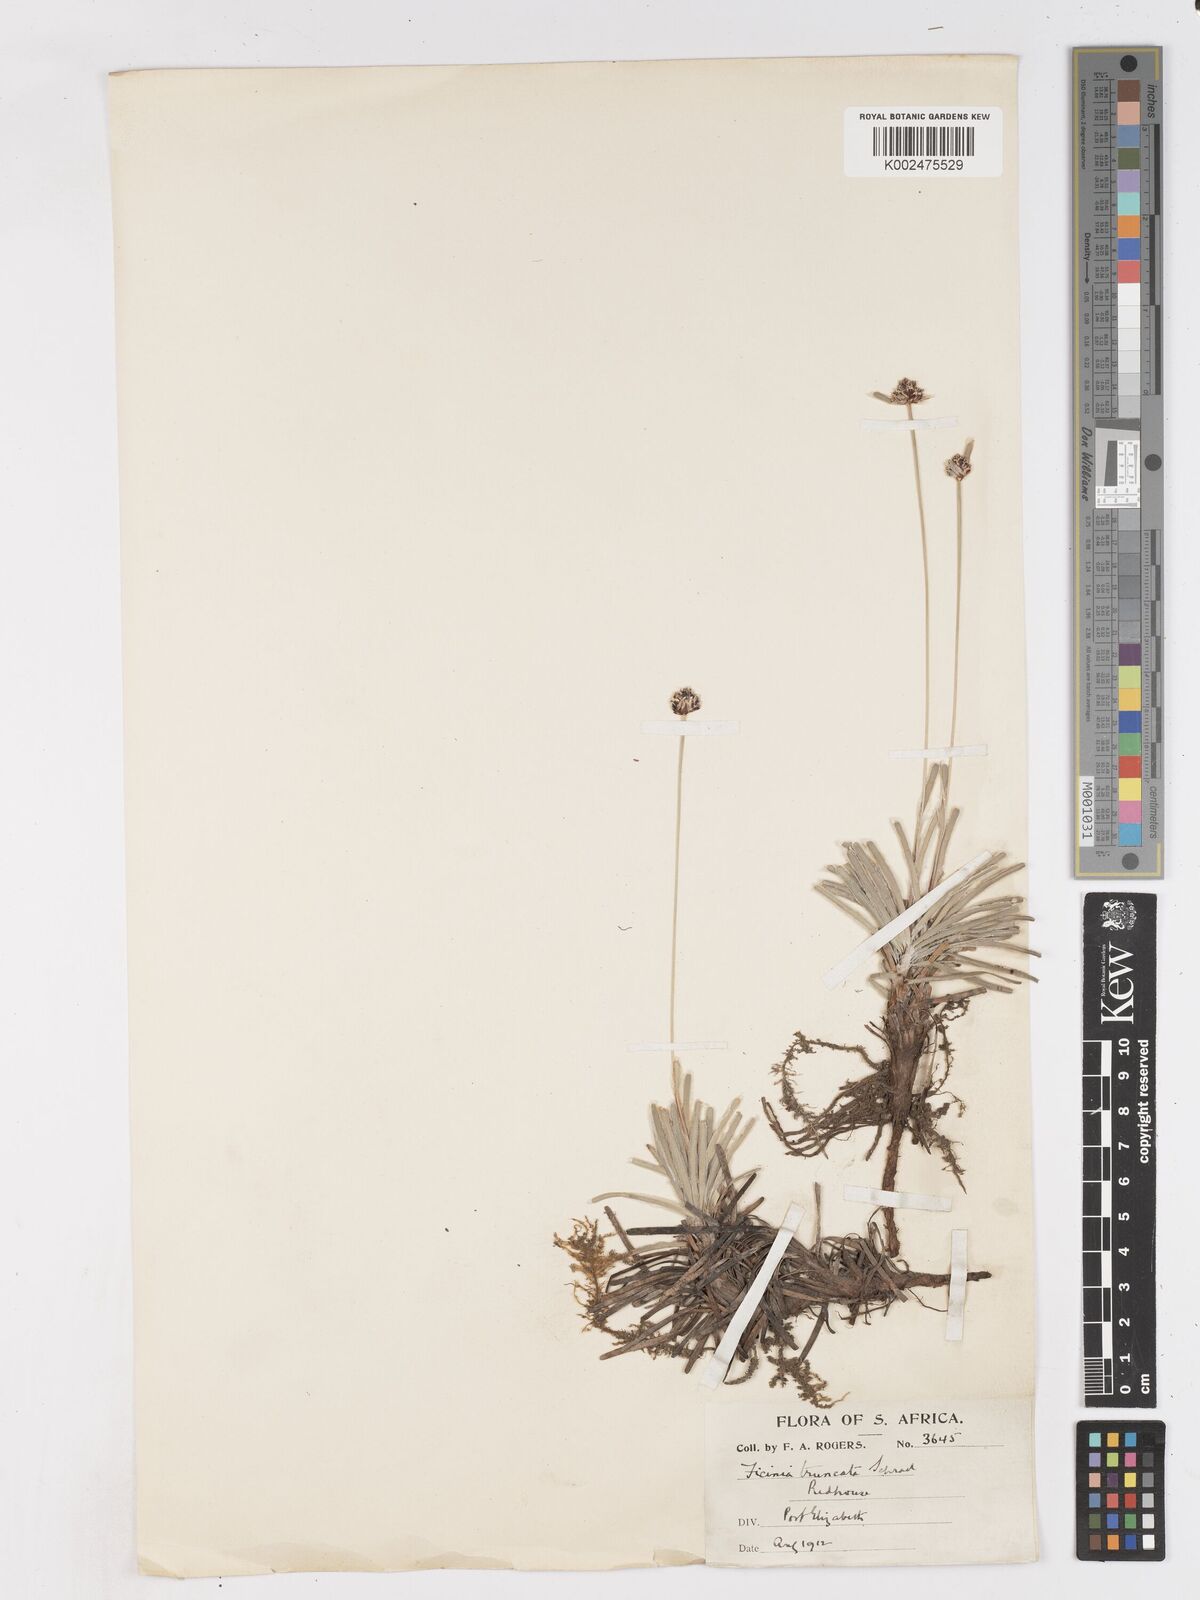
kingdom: Plantae
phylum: Tracheophyta
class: Liliopsida
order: Poales
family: Cyperaceae
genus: Ficinia
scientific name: Ficinia truncata
